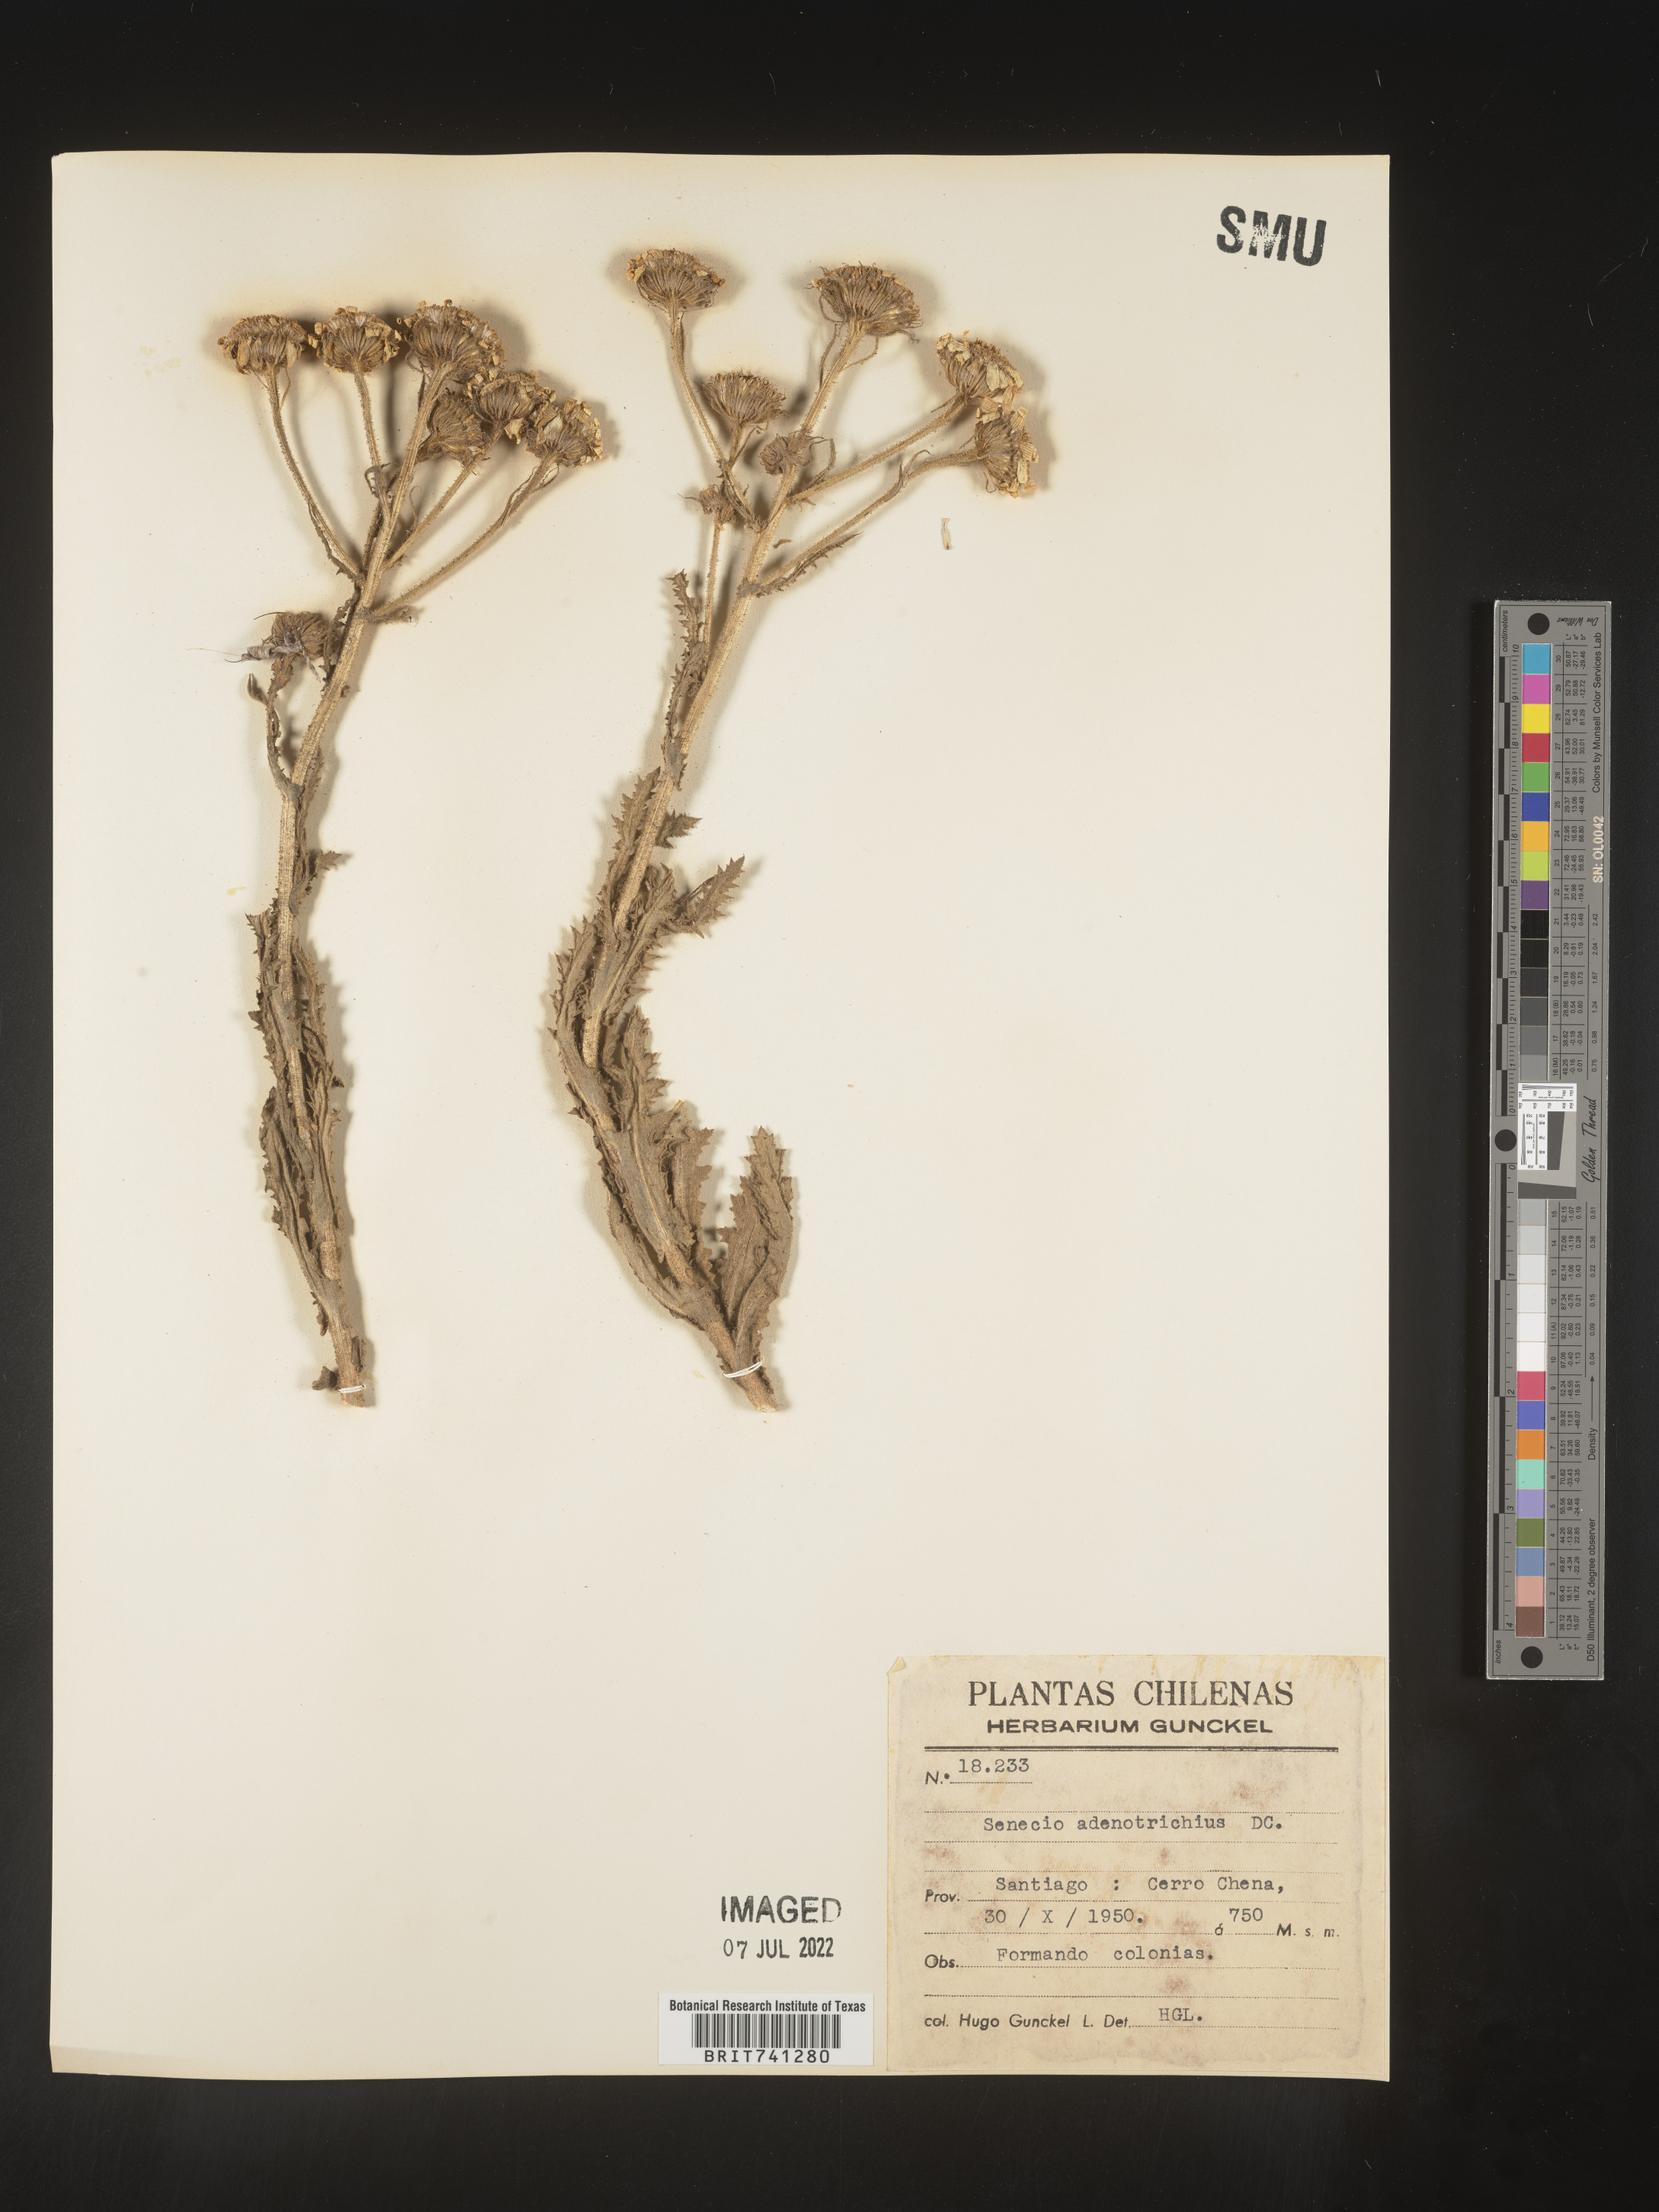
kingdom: Plantae
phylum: Tracheophyta
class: Magnoliopsida
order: Asterales
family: Asteraceae
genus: Senecio
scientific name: Senecio
